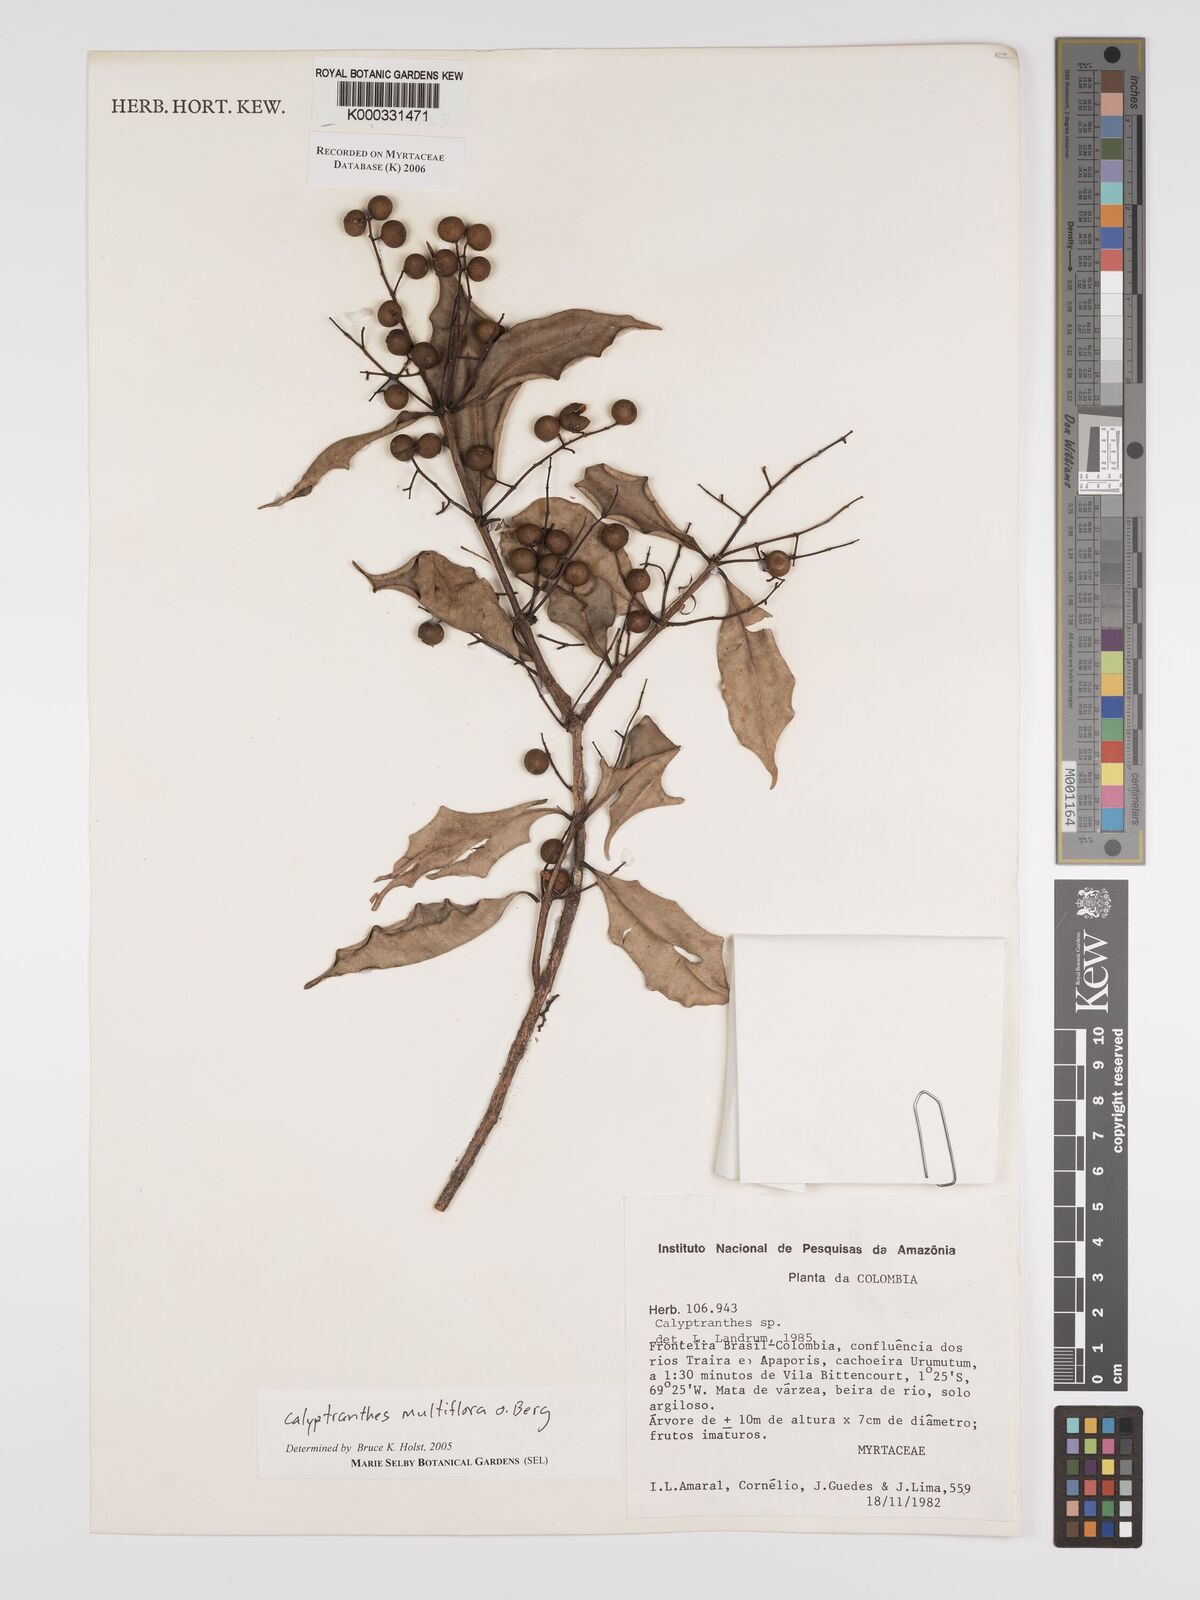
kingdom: Plantae
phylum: Tracheophyta
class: Magnoliopsida
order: Myrtales
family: Myrtaceae
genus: Myrcia
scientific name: Myrcia aulomyrcioides
